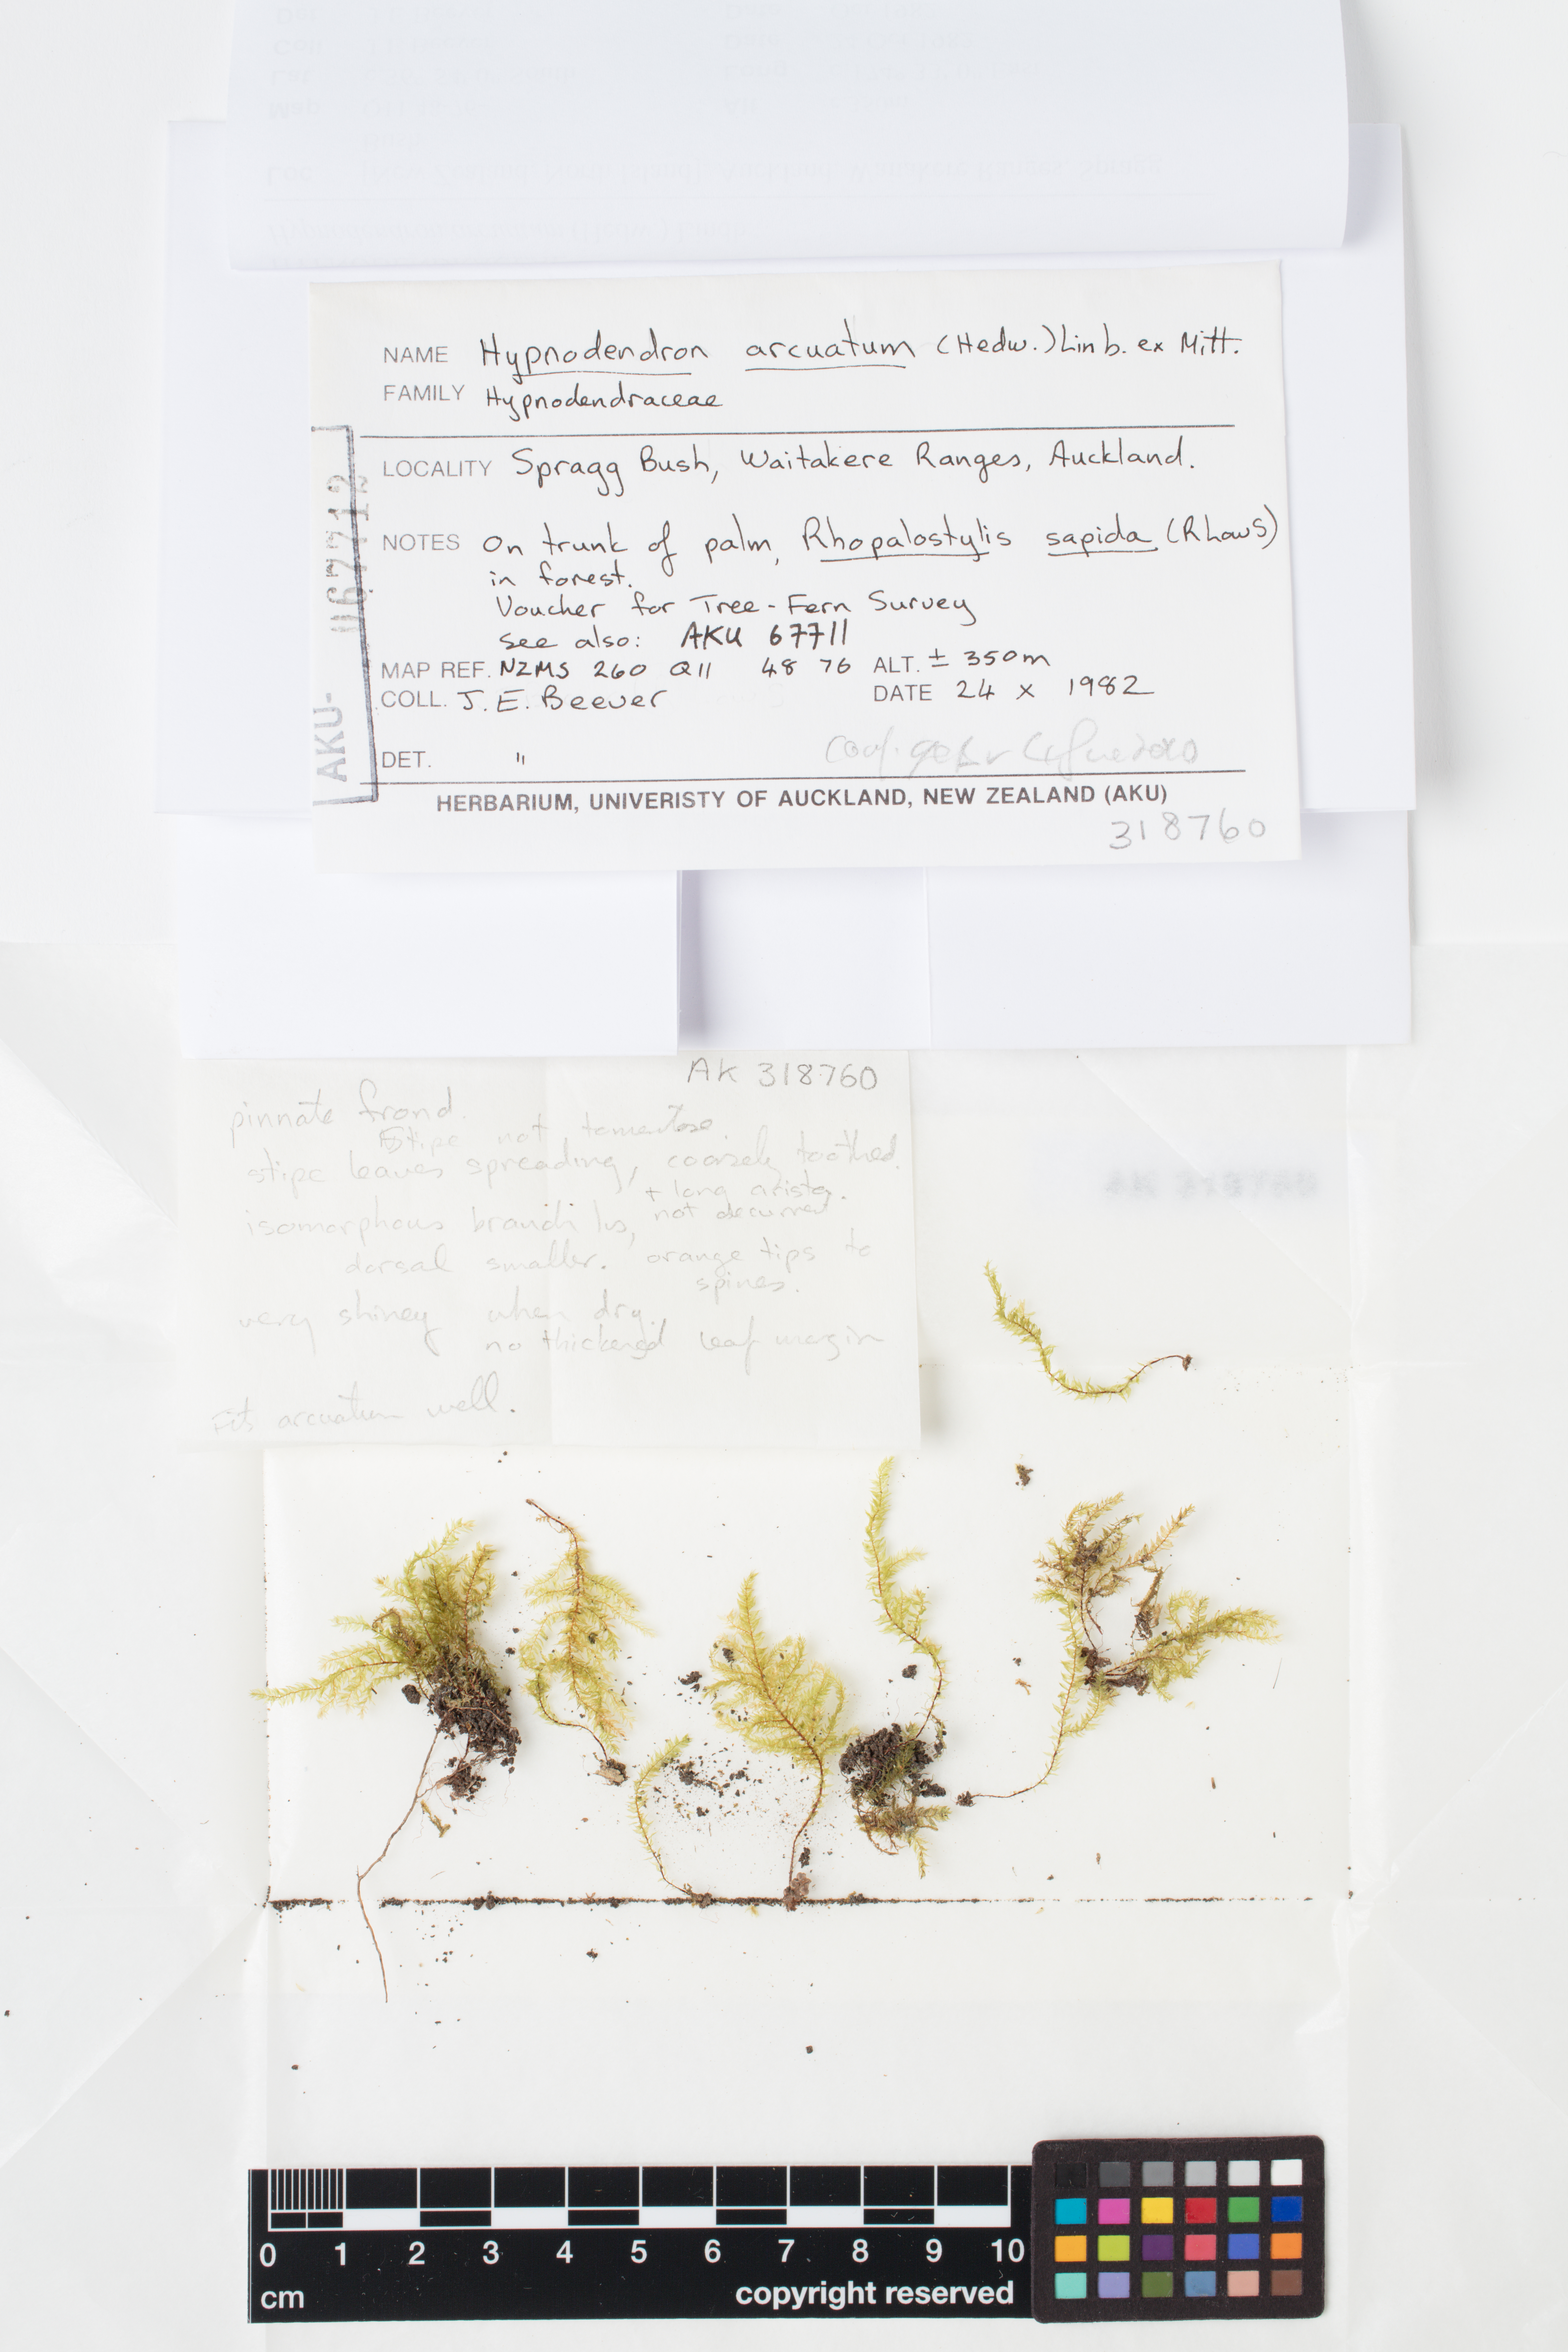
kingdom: Plantae
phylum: Bryophyta
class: Bryopsida
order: Hypnodendrales
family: Spiridentaceae
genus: Hypnodendron
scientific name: Hypnodendron arcuatum
